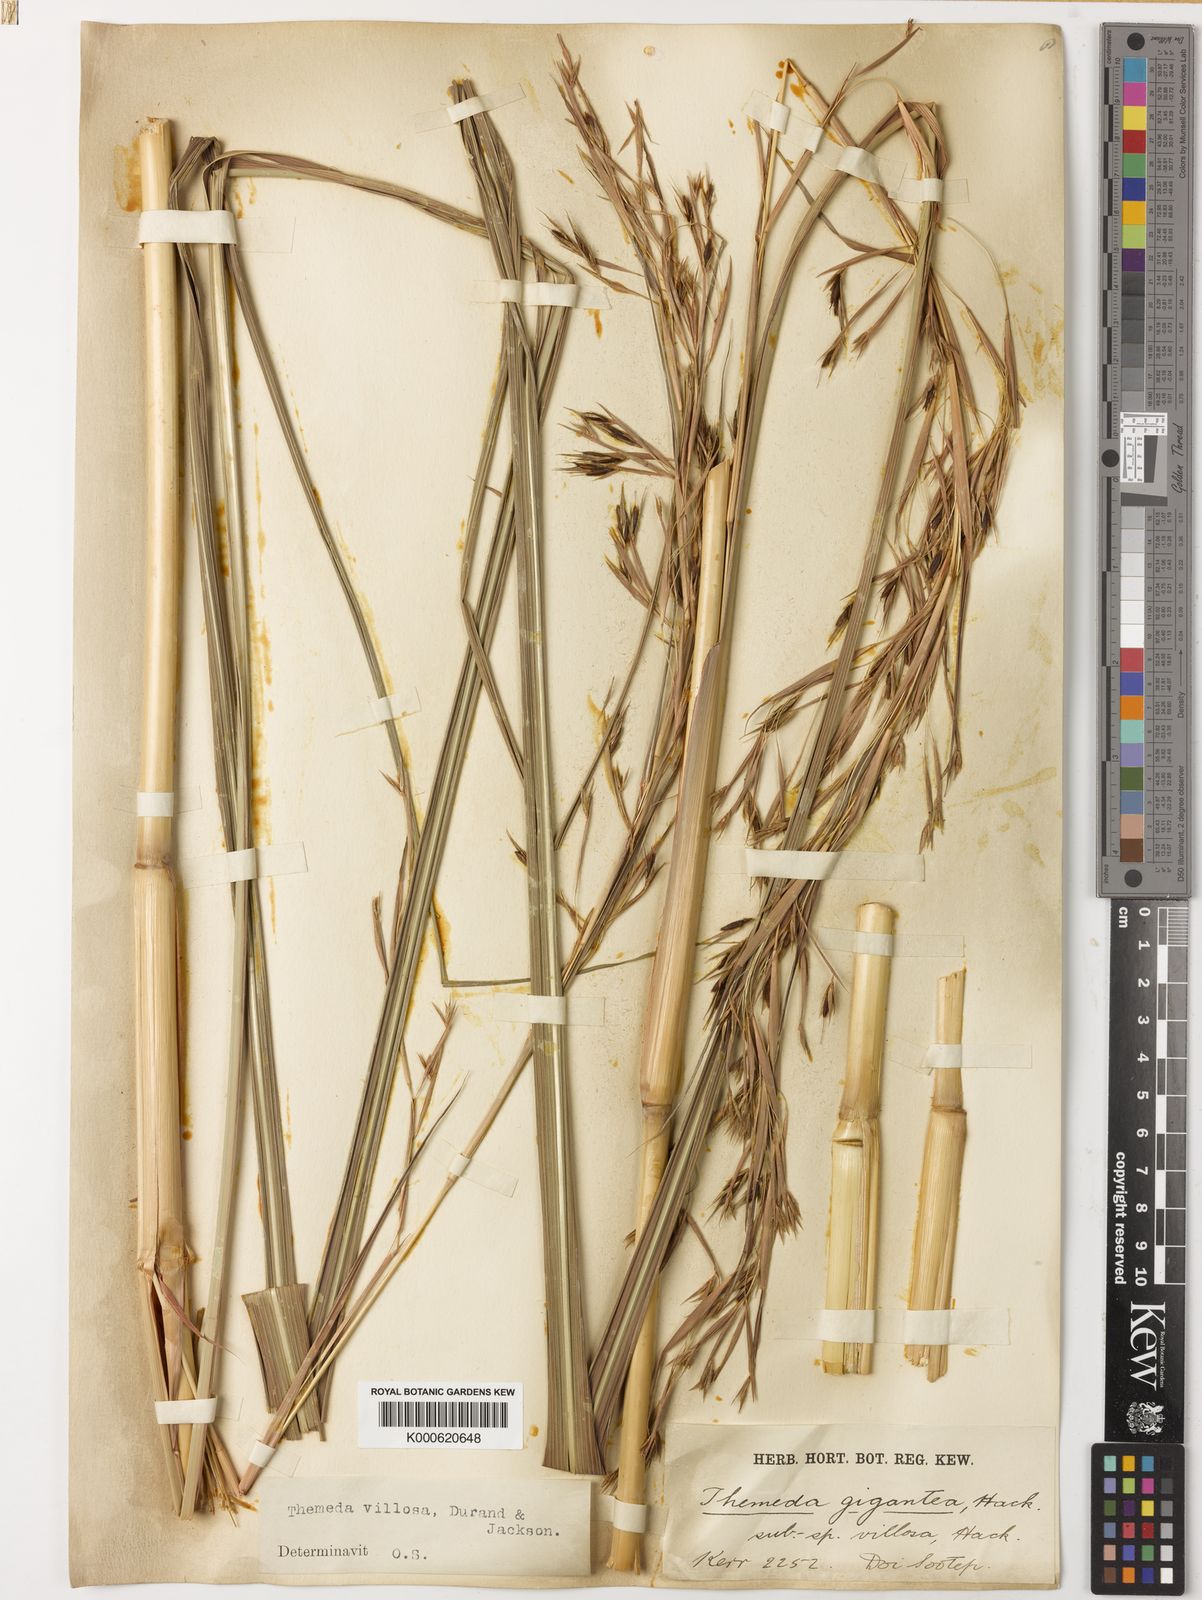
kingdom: Plantae
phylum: Tracheophyta
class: Liliopsida
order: Poales
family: Poaceae
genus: Themeda
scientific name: Themeda villosa
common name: Silky kangaroo grass
